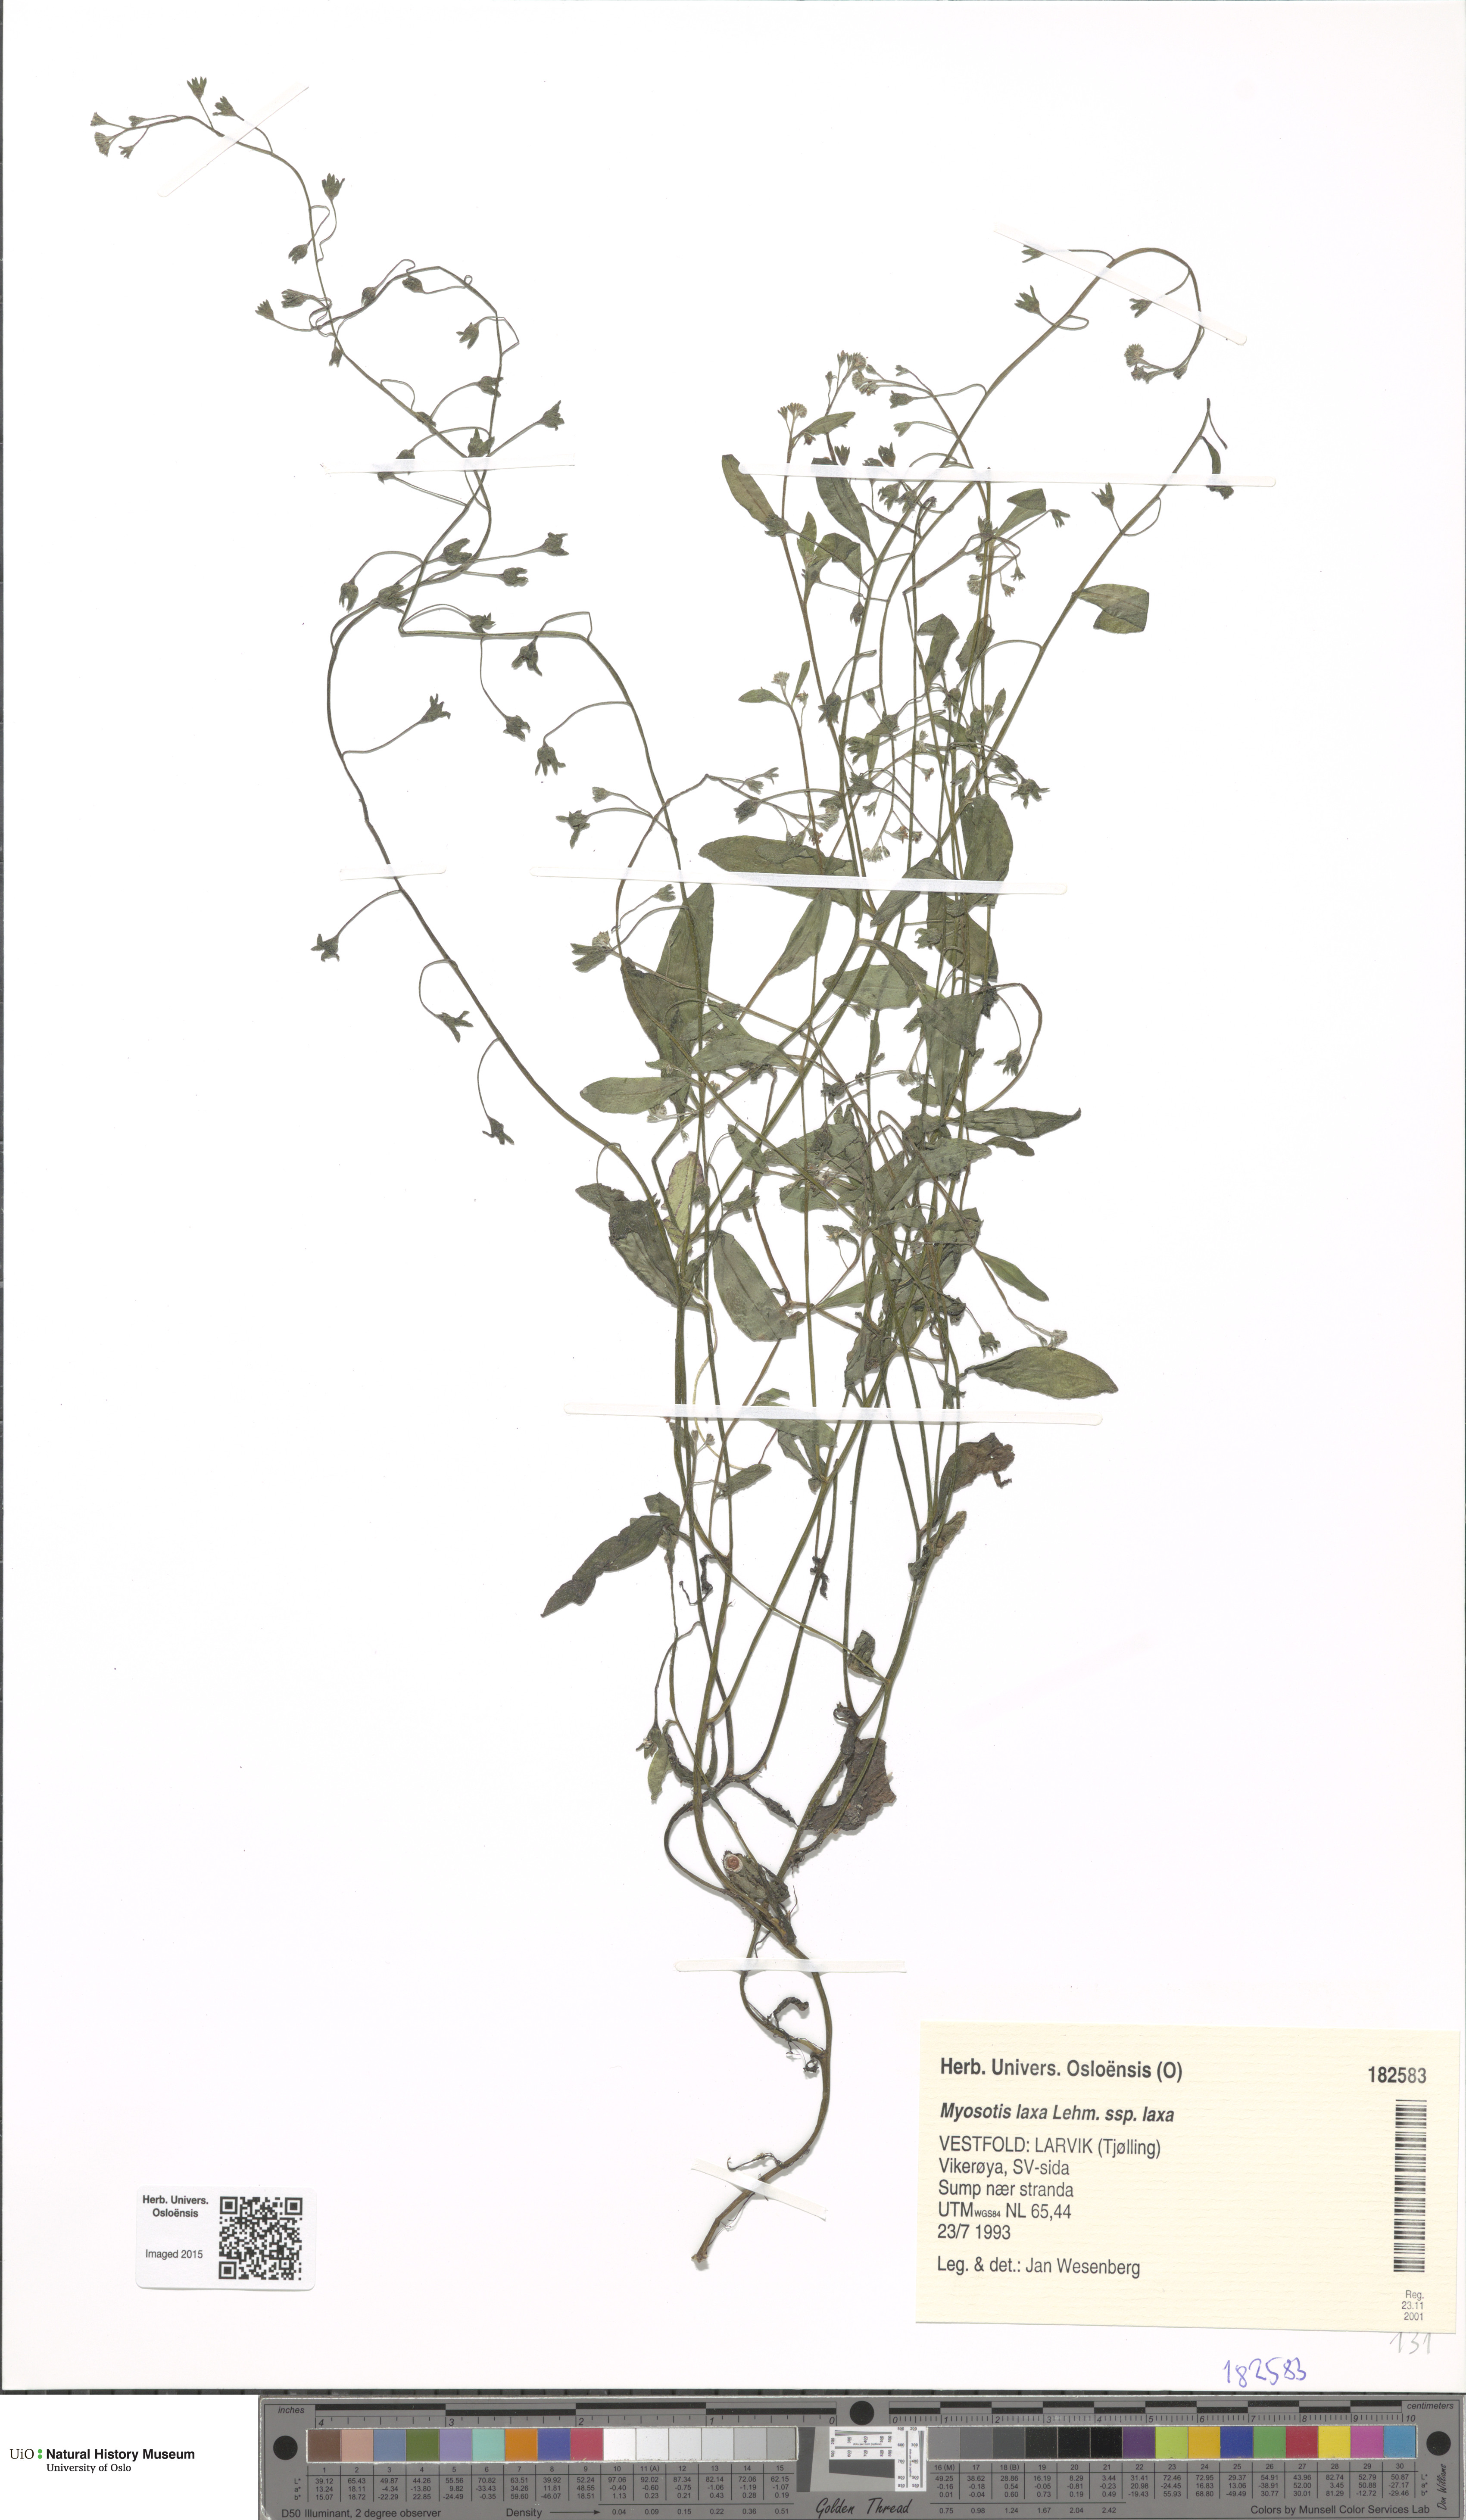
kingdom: Plantae
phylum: Tracheophyta
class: Magnoliopsida
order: Boraginales
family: Boraginaceae
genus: Myosotis
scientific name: Myosotis laxa
